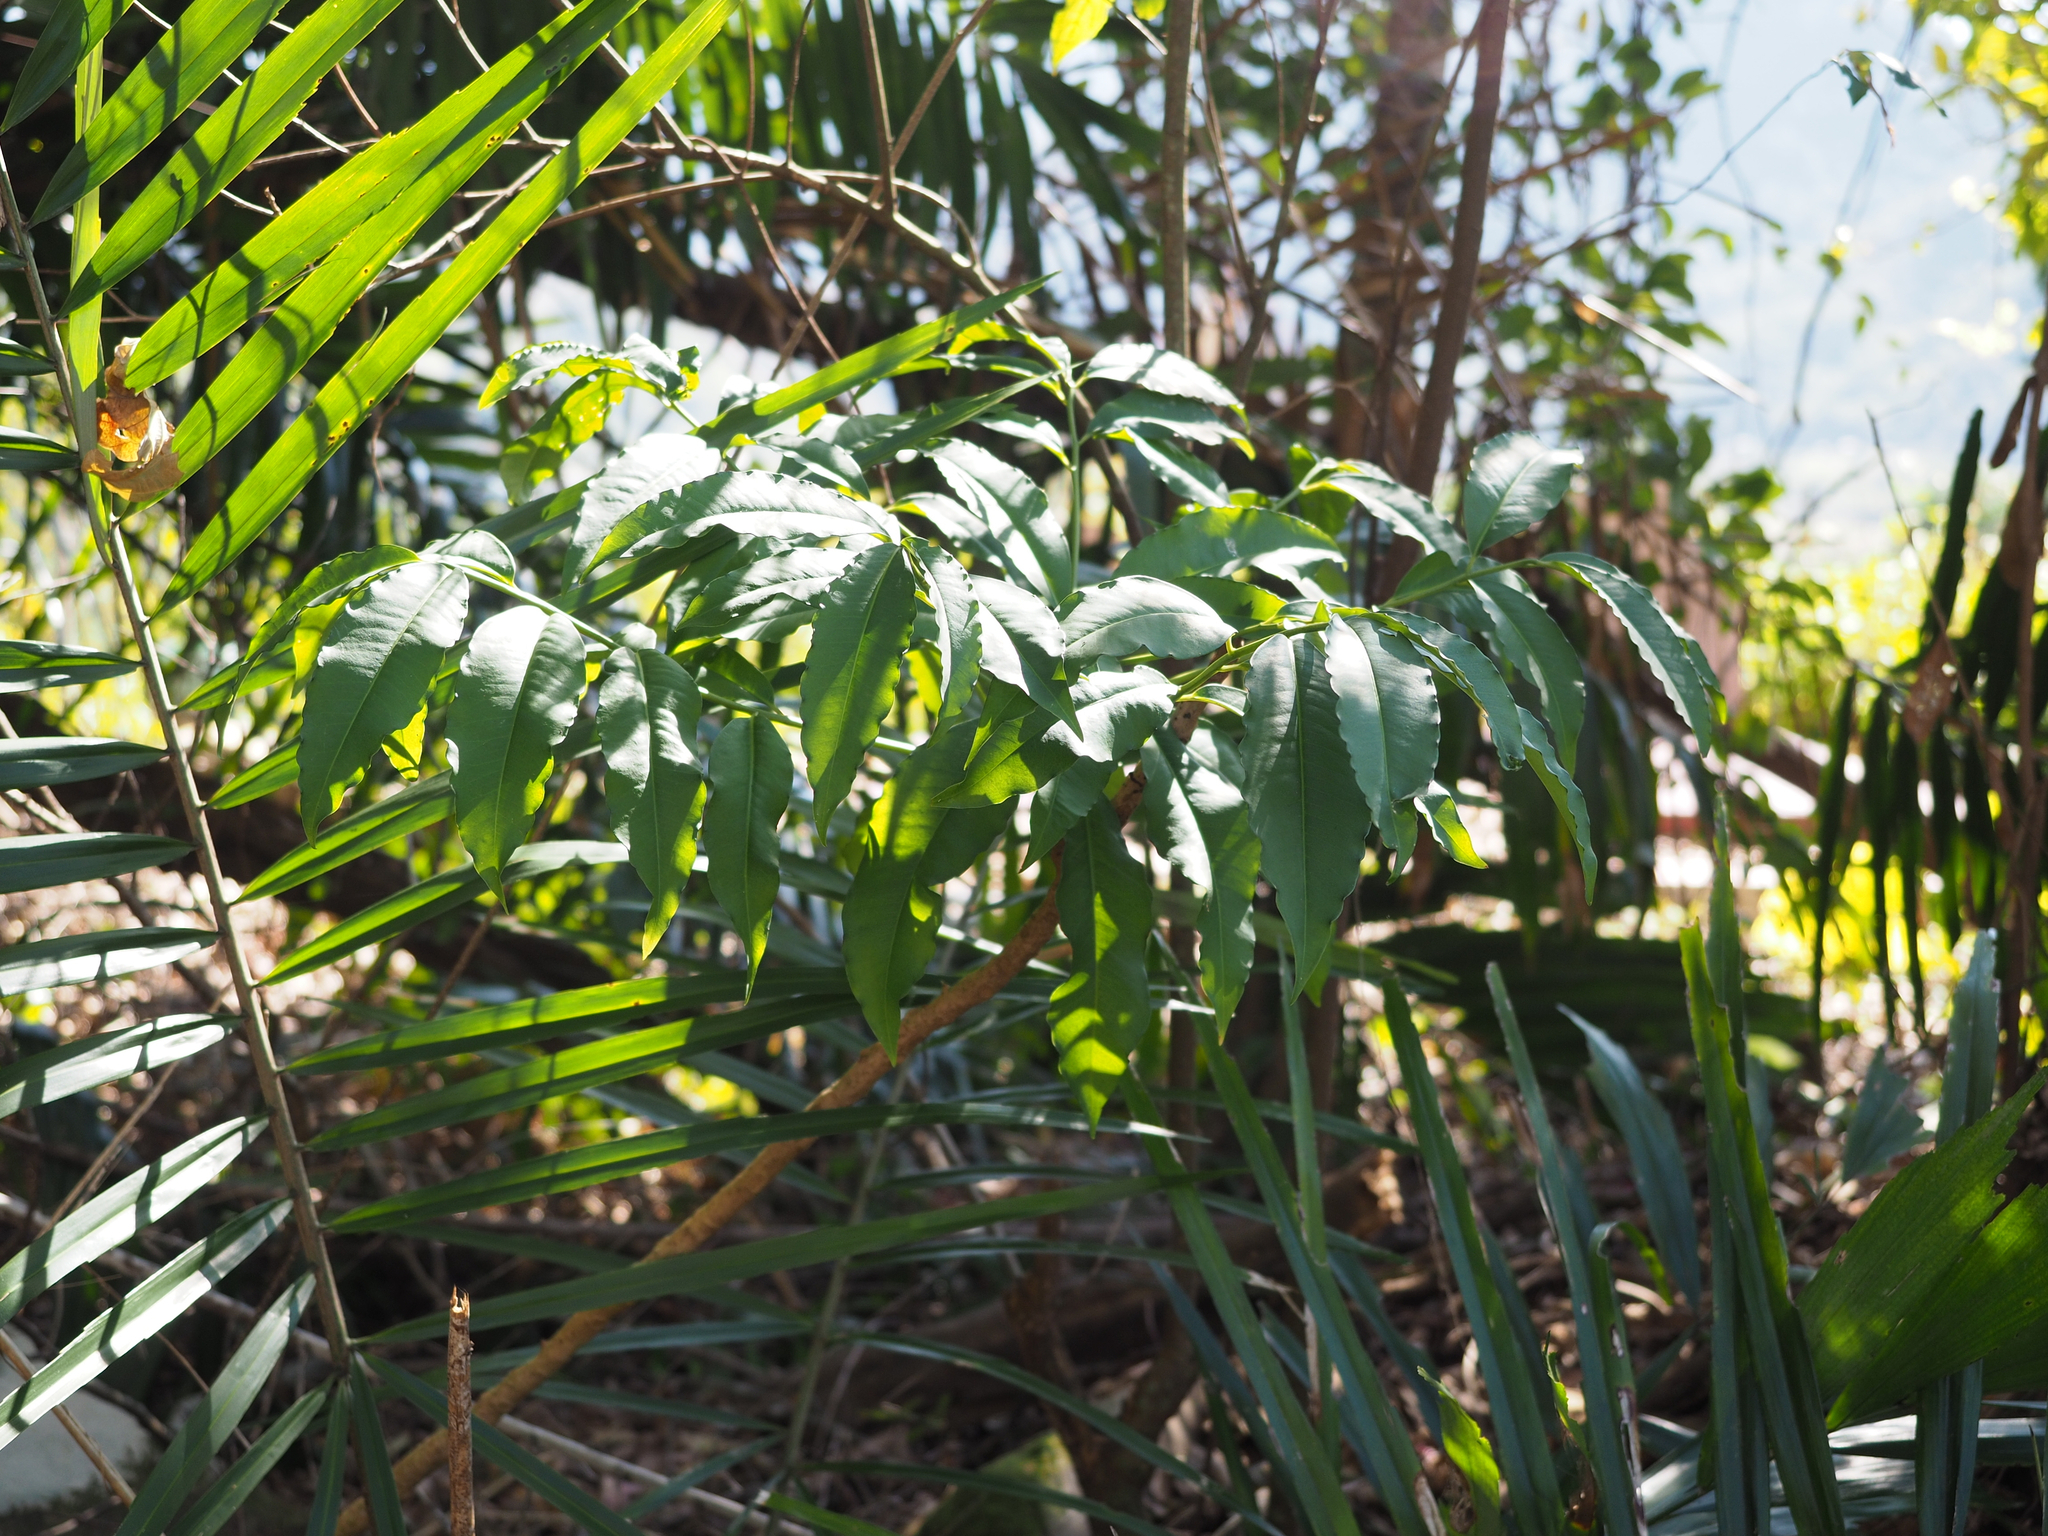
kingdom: Plantae
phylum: Tracheophyta
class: Magnoliopsida
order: Ericales
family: Primulaceae
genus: Ardisia
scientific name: Ardisia polysticta
